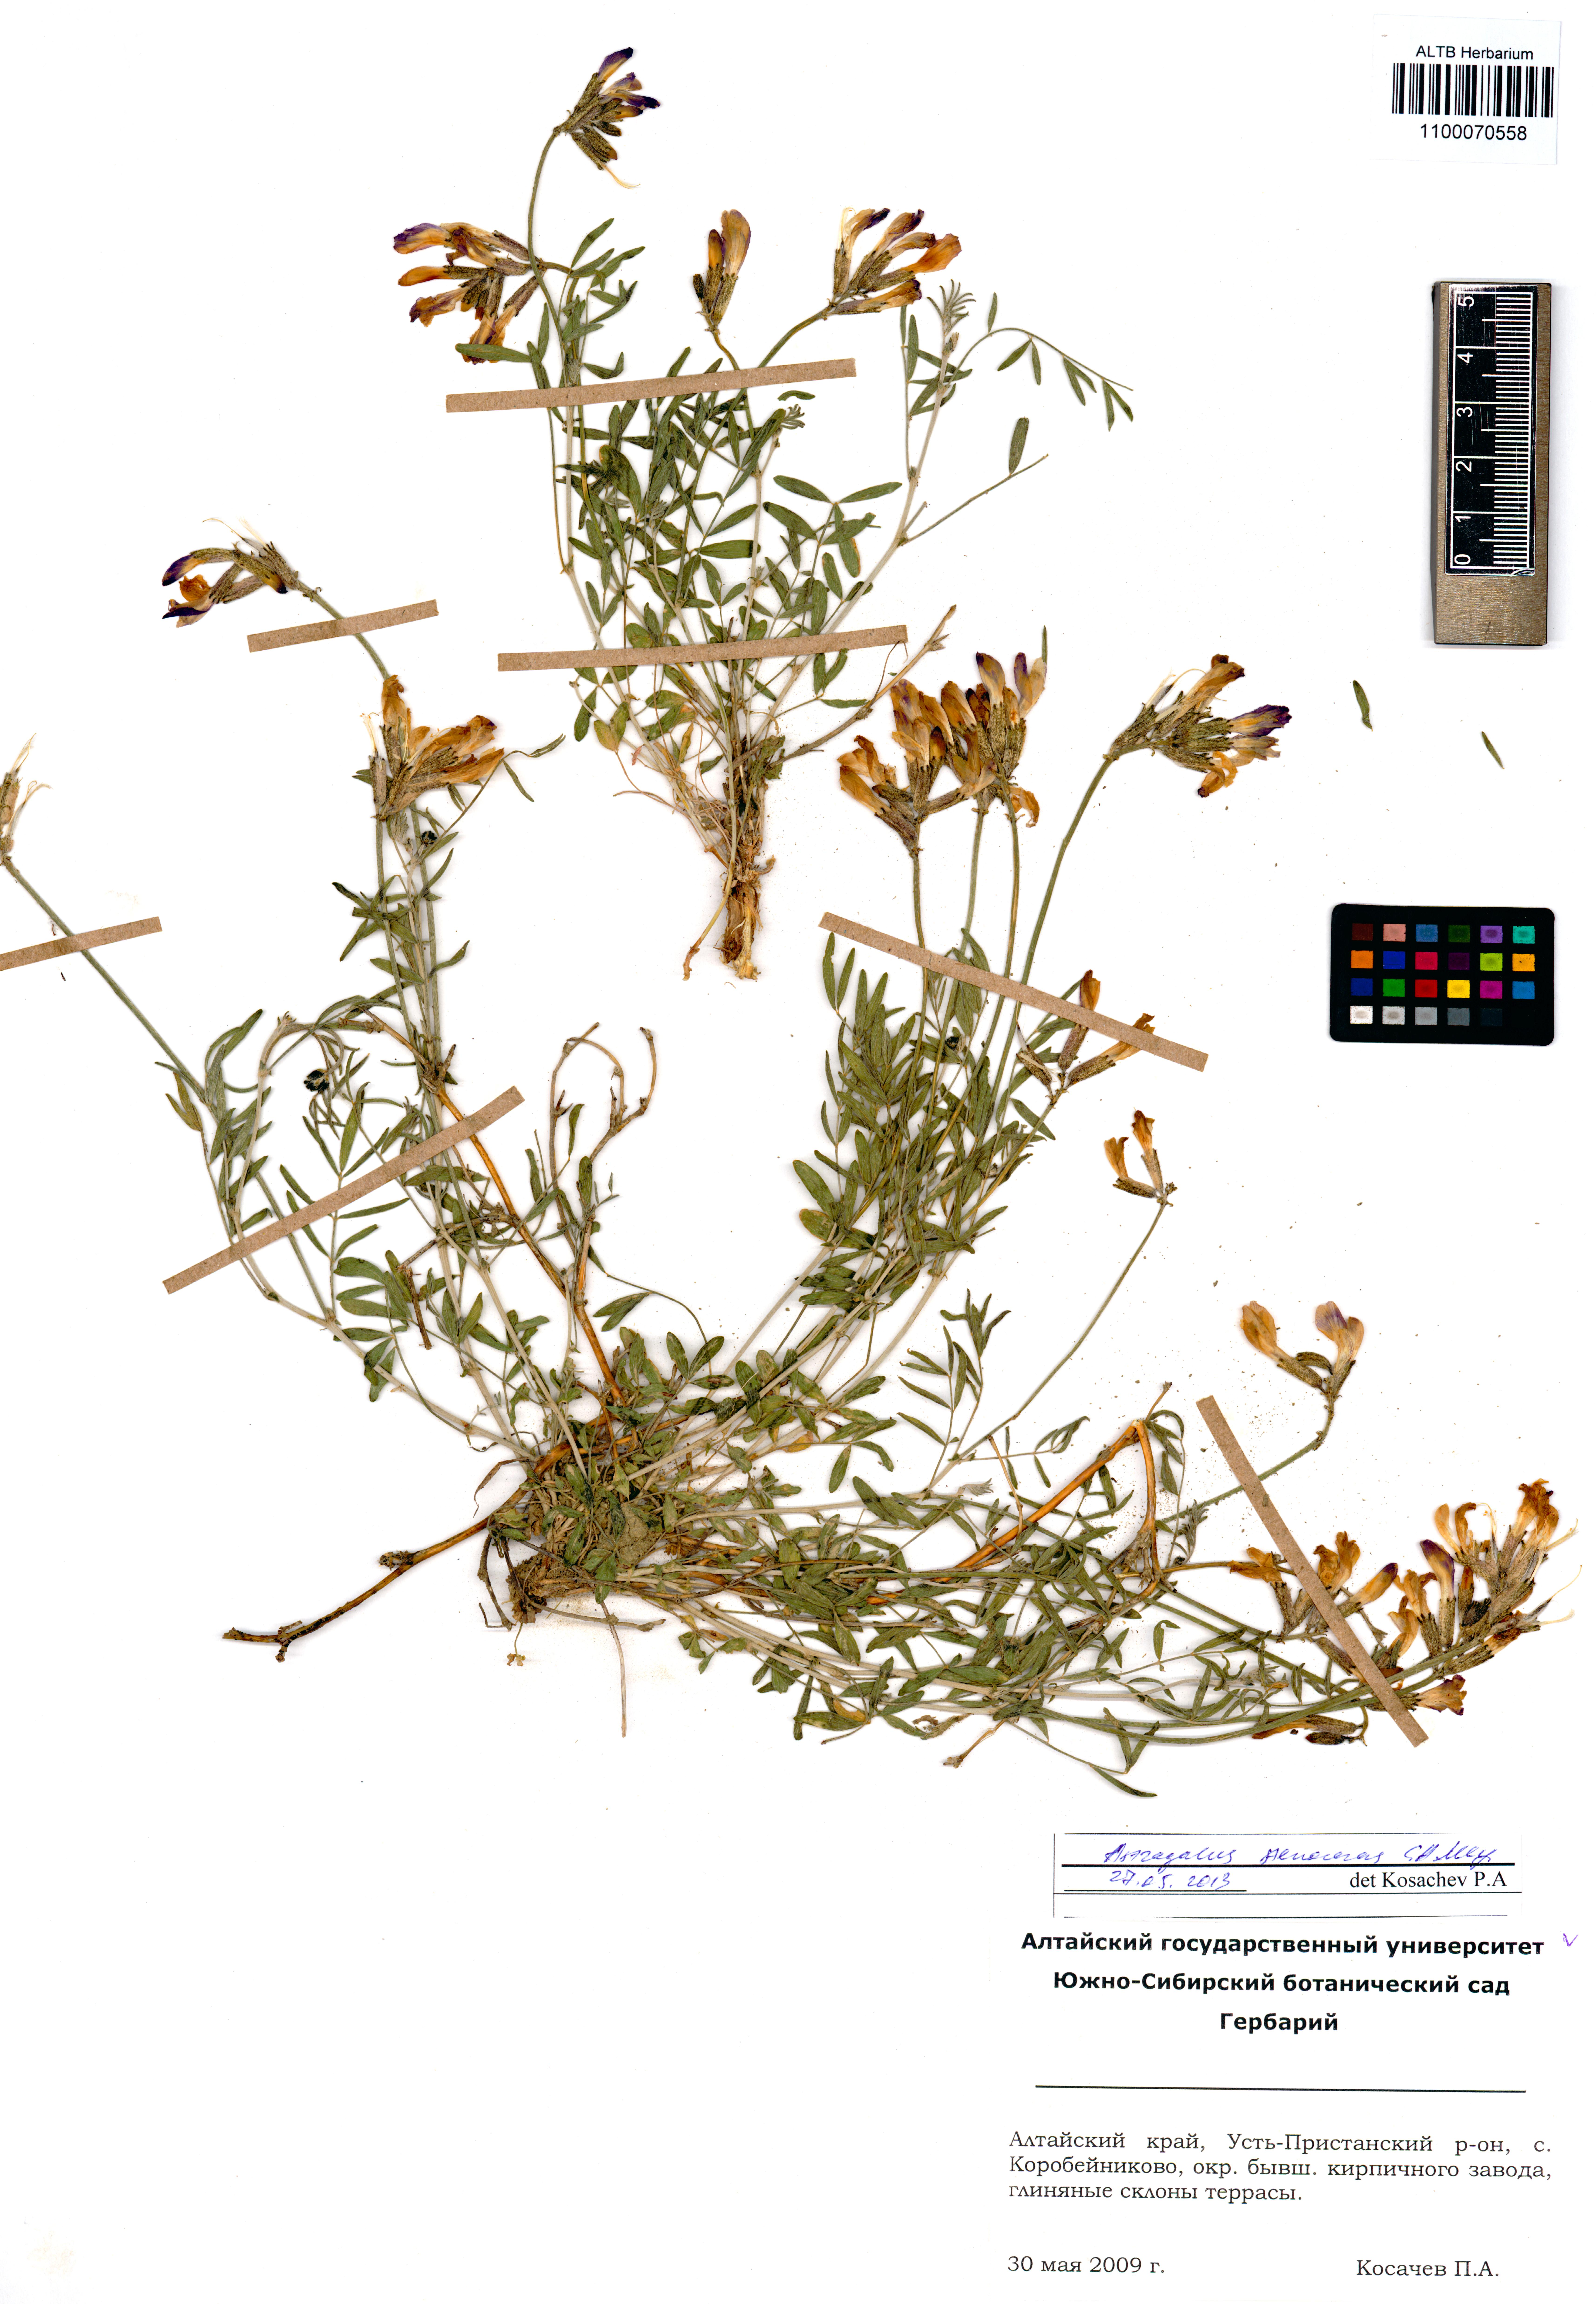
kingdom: Plantae
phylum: Tracheophyta
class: Magnoliopsida
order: Fabales
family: Fabaceae
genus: Astragalus
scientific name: Astragalus stenoceras
